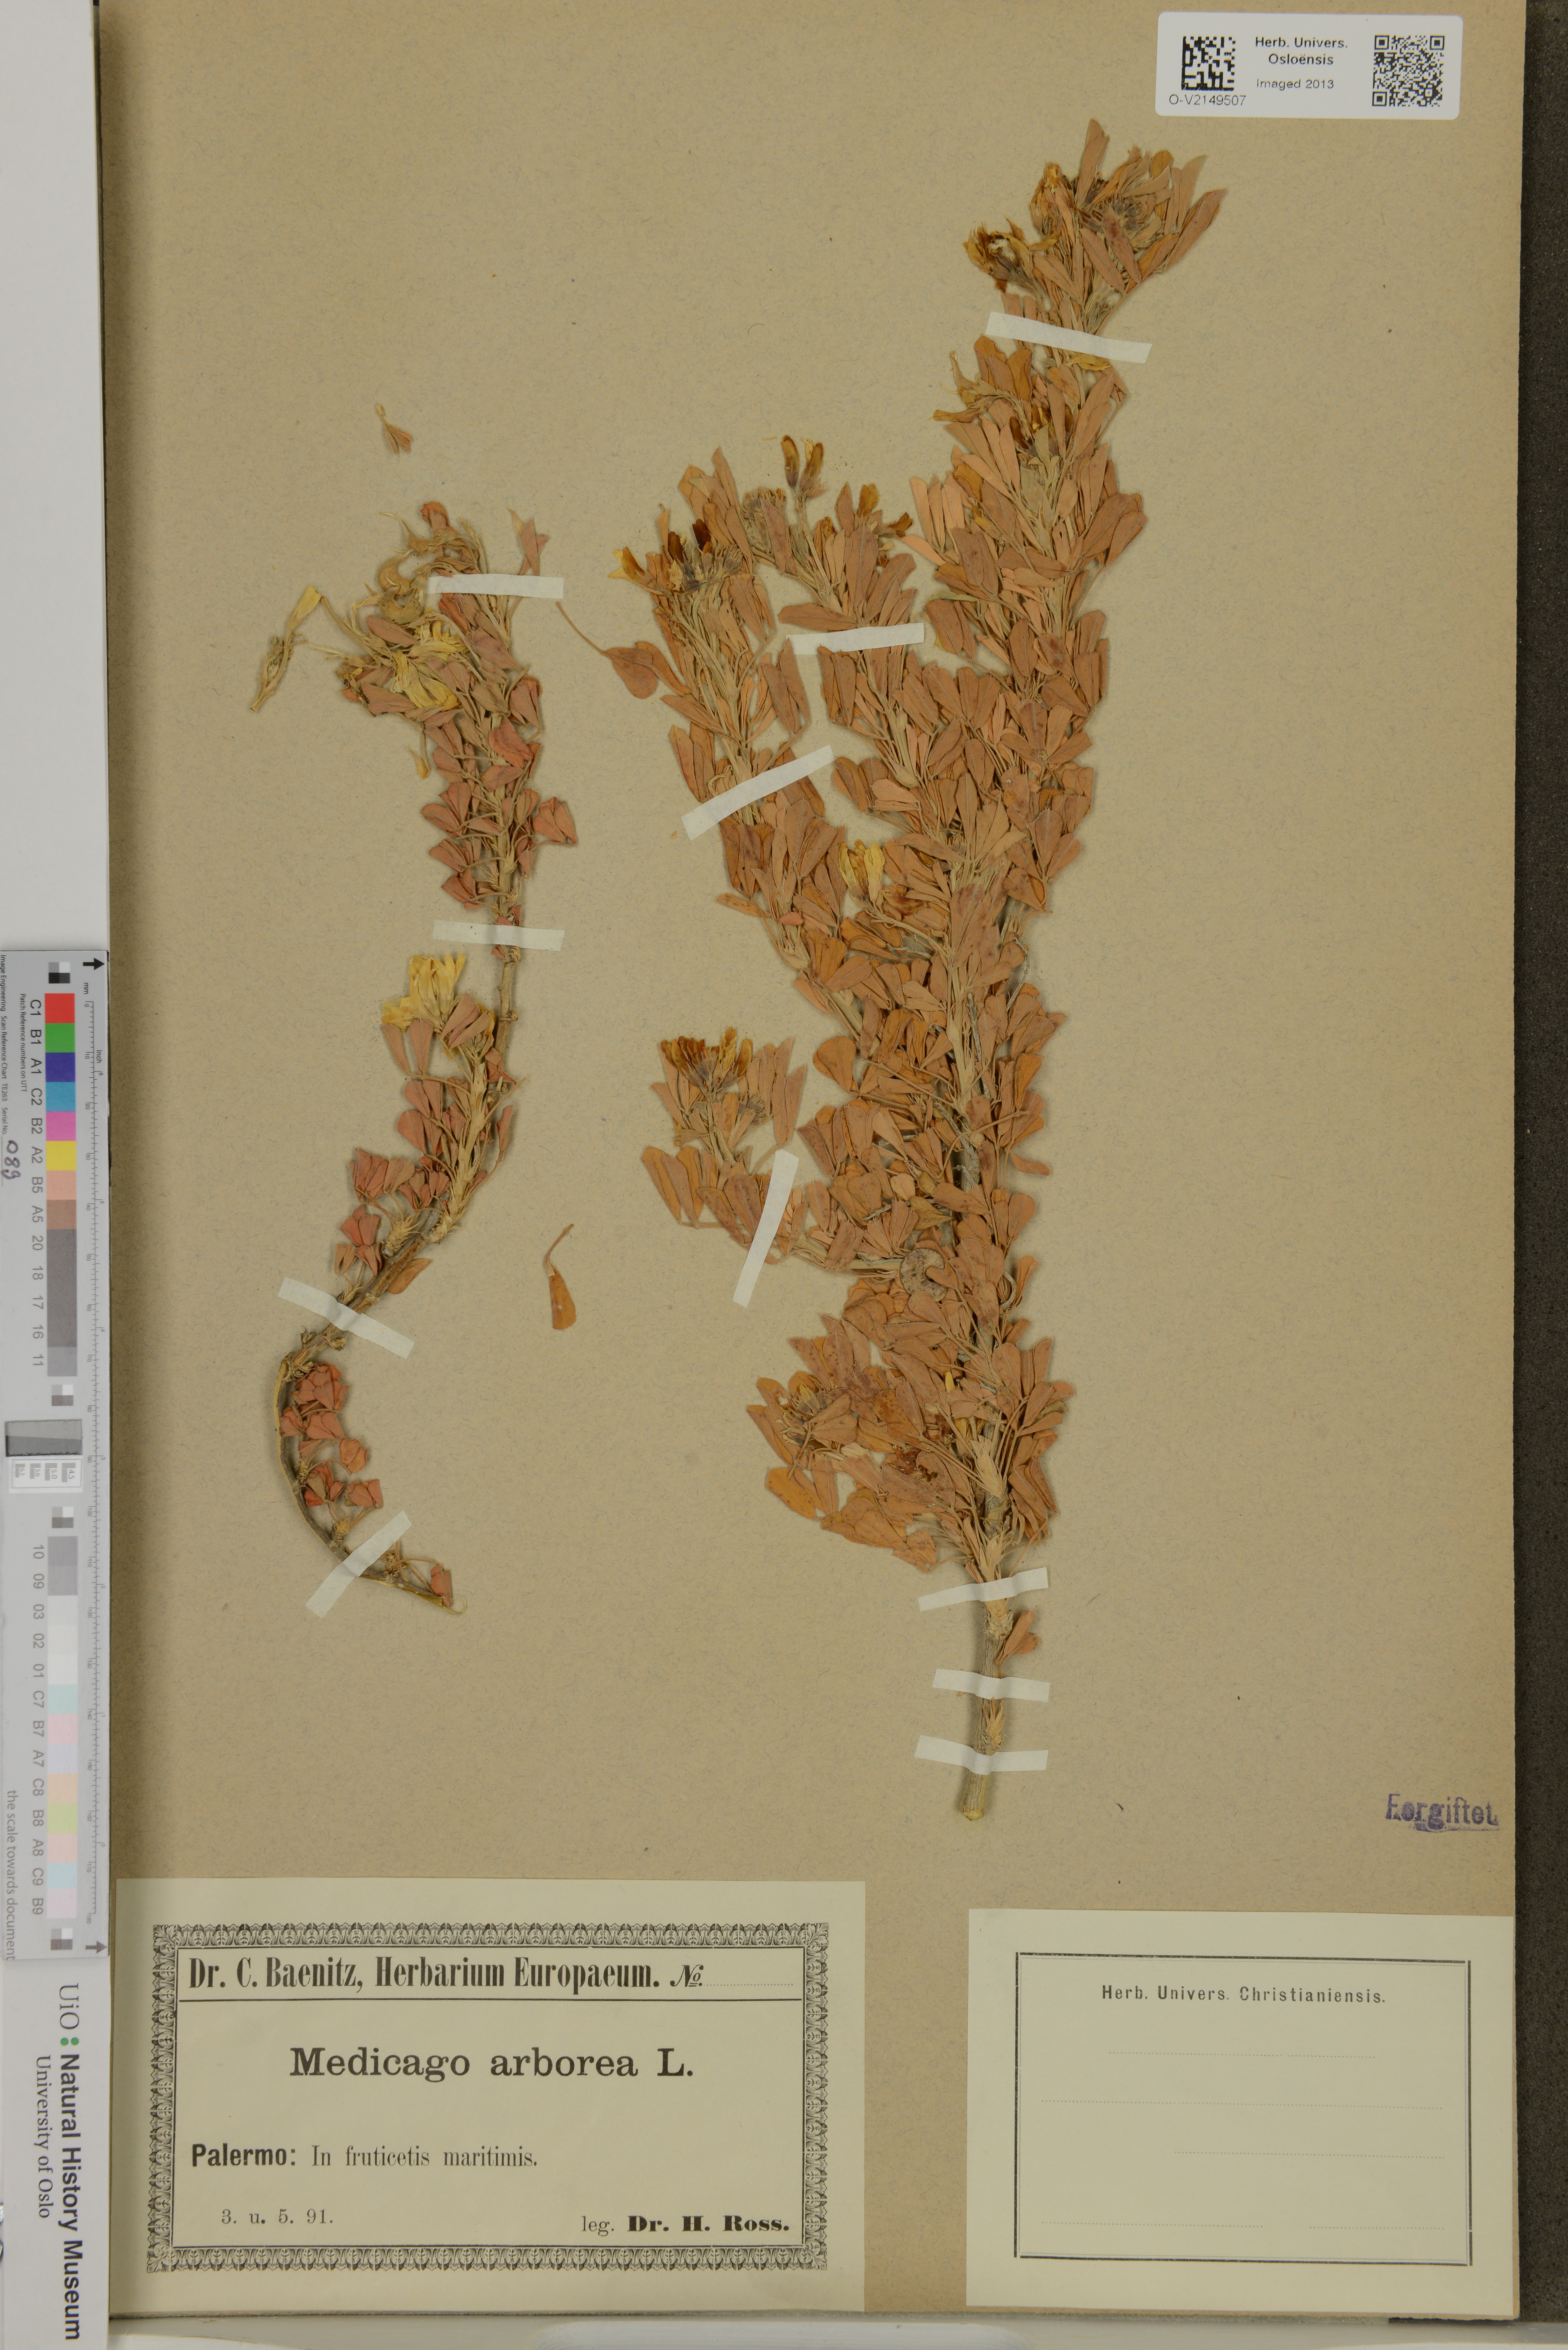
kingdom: Plantae
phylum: Tracheophyta
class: Magnoliopsida
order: Fabales
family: Fabaceae
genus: Medicago
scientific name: Medicago arborea
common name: Moon trefoil
